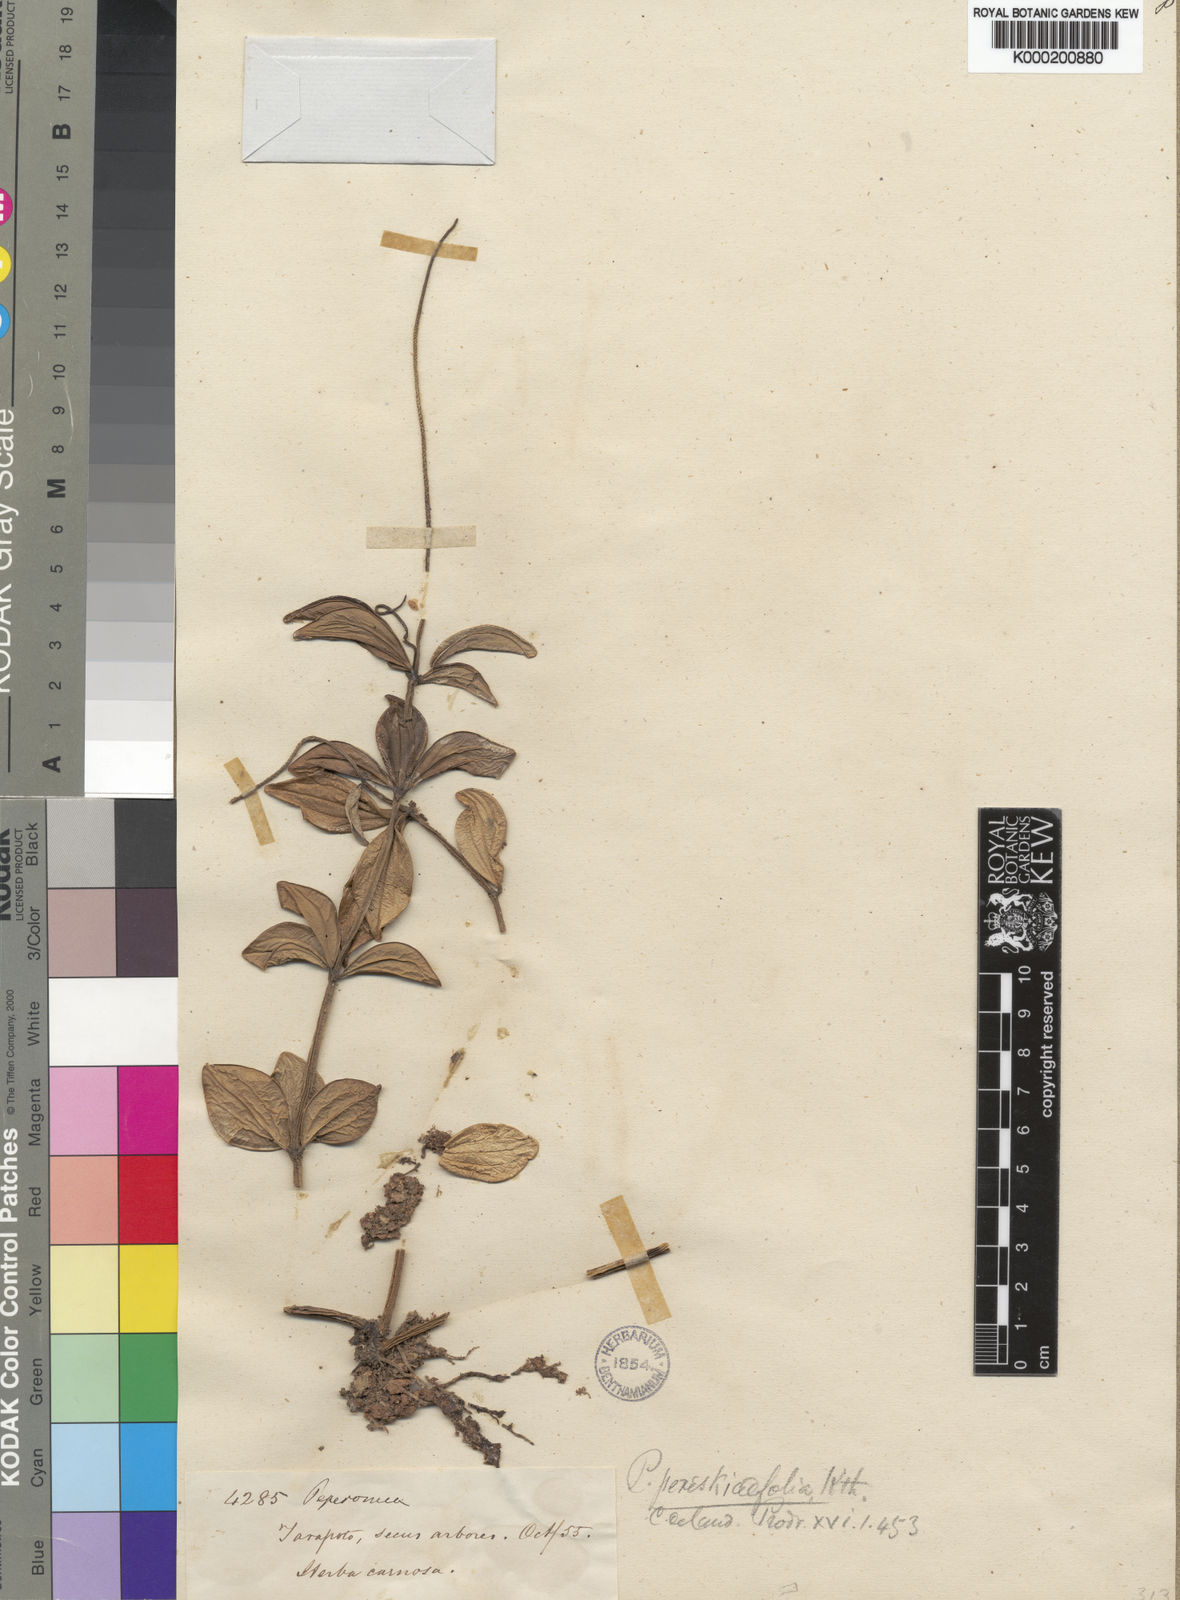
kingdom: Plantae
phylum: Tracheophyta
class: Magnoliopsida
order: Piperales
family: Piperaceae
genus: Peperomia
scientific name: Peperomia
